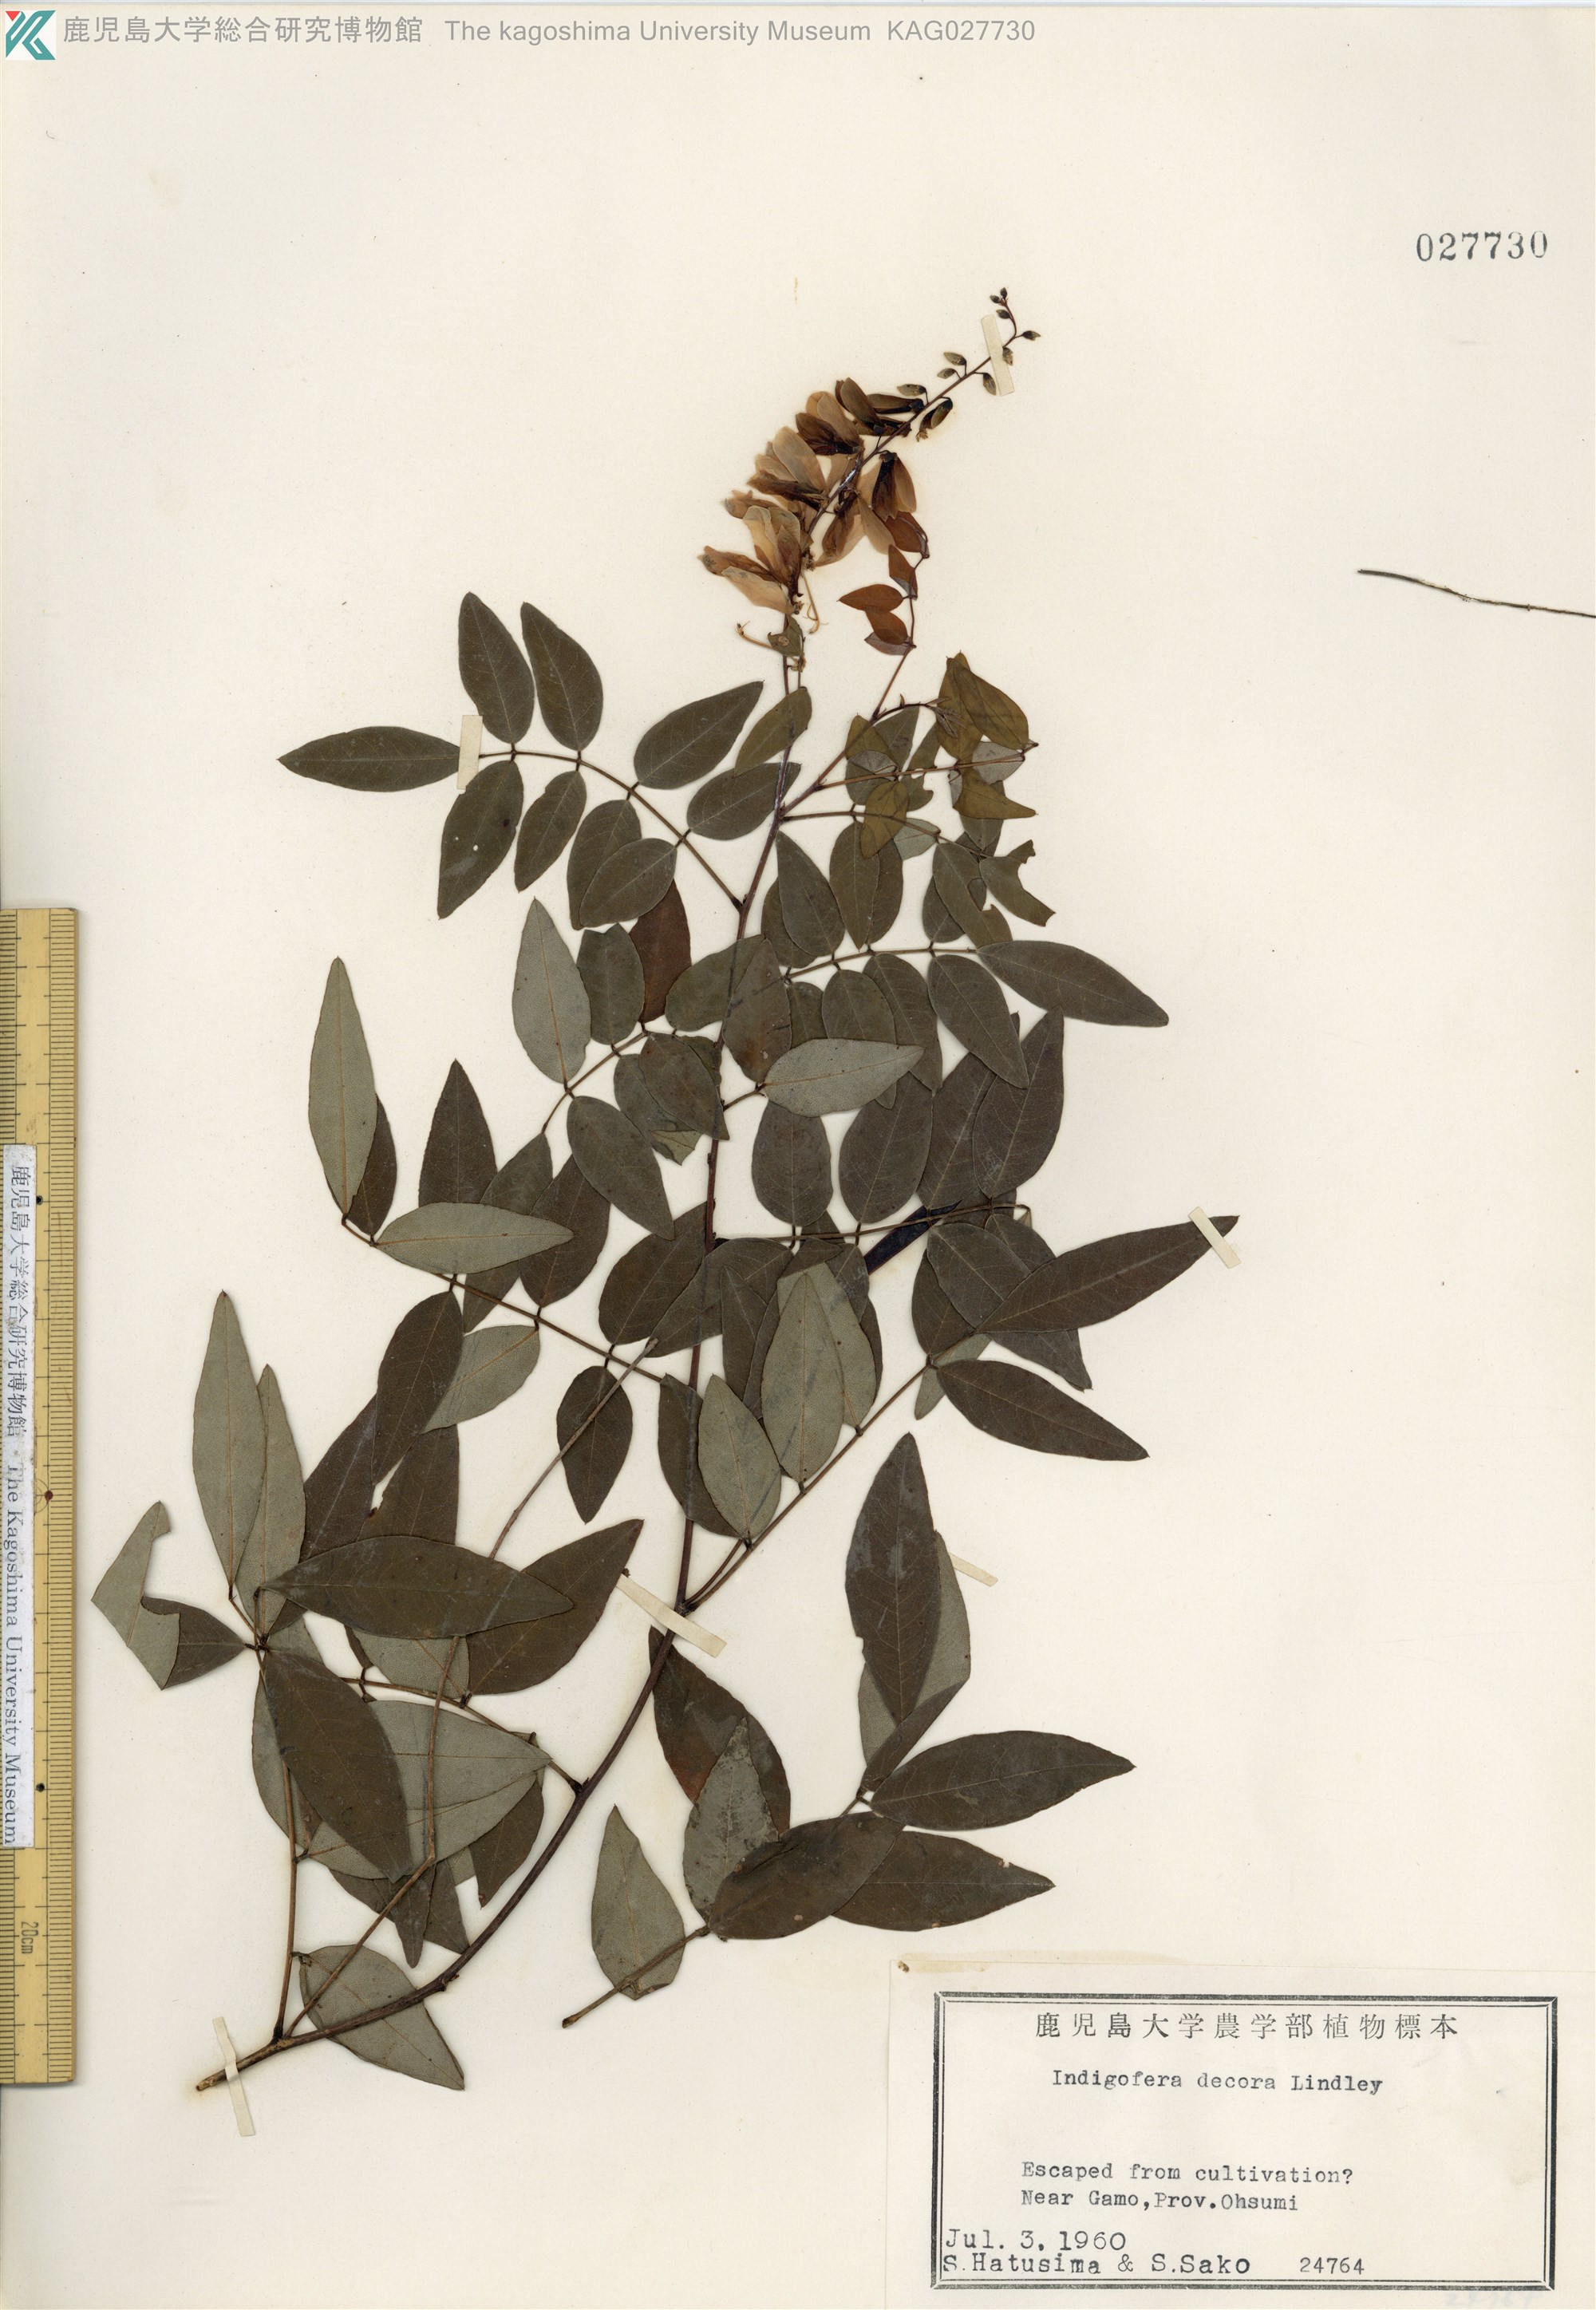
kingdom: Plantae
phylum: Tracheophyta
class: Magnoliopsida
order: Fabales
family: Fabaceae
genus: Indigofera
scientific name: Indigofera incarnata
